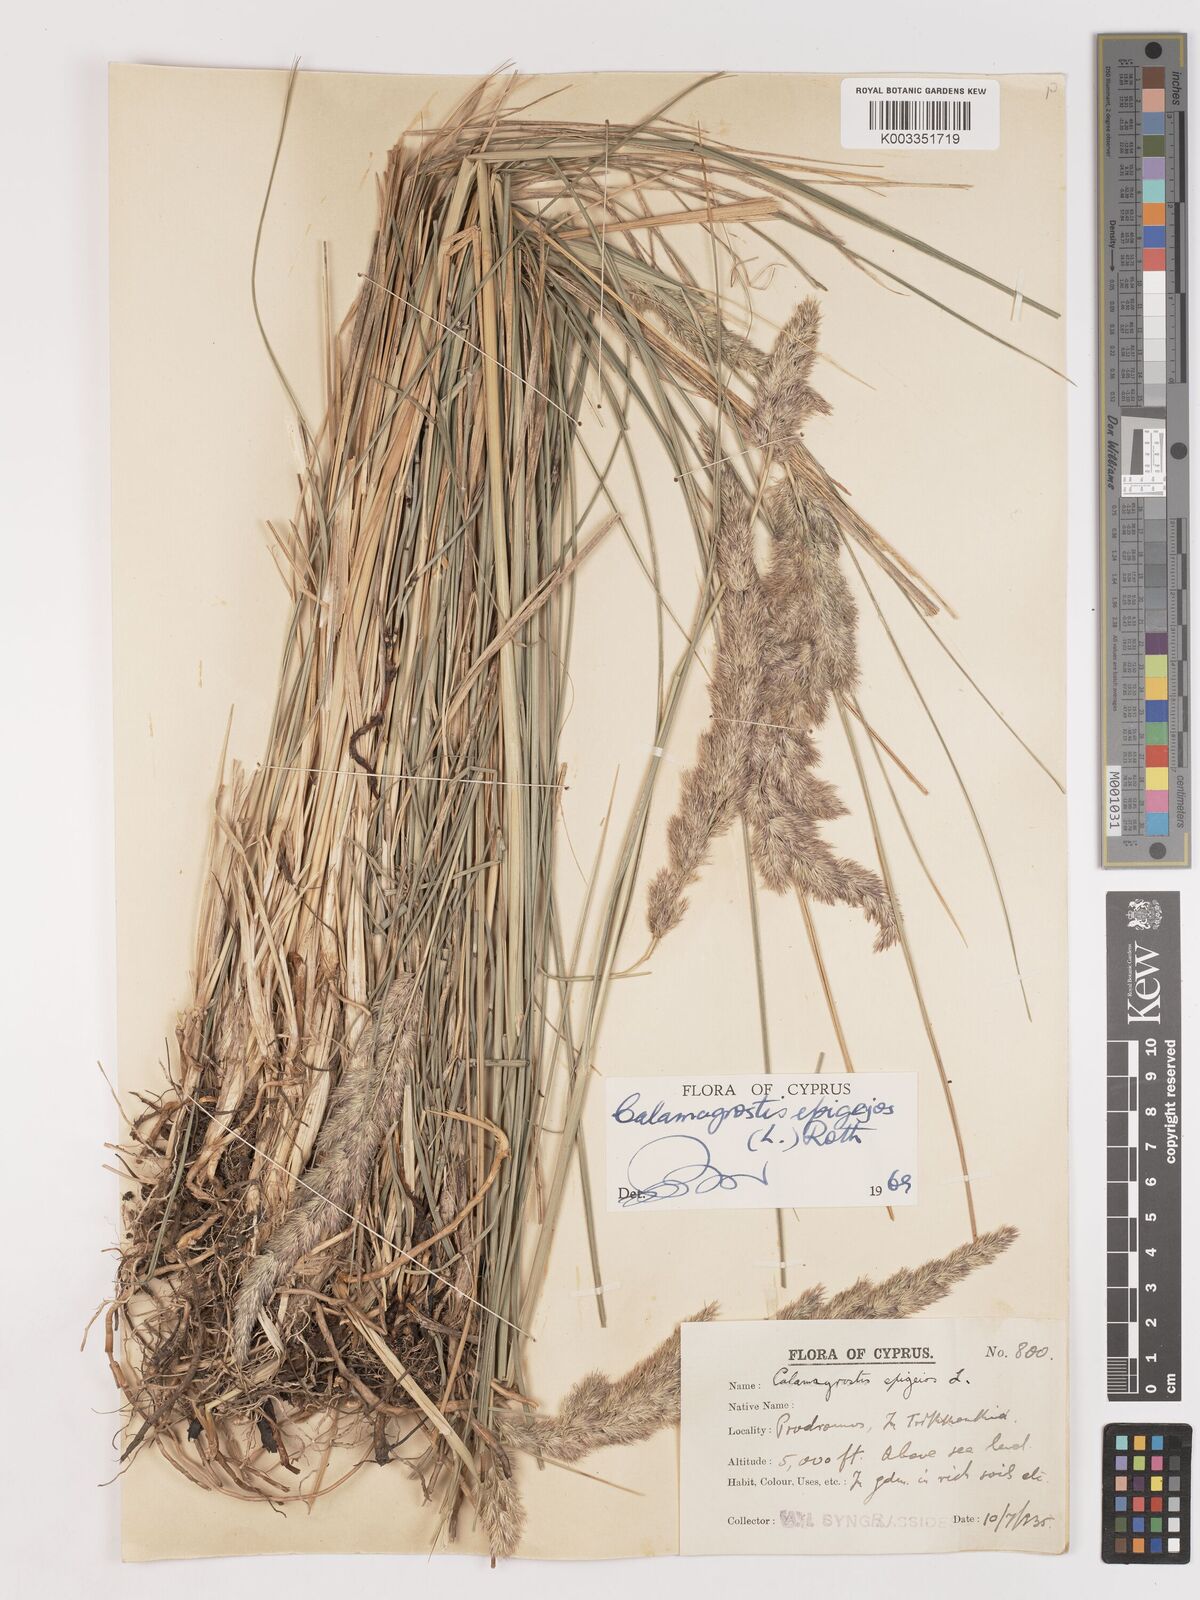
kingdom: Plantae
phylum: Tracheophyta
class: Liliopsida
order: Poales
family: Poaceae
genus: Calamagrostis
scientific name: Calamagrostis epigejos
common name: Wood small-reed
